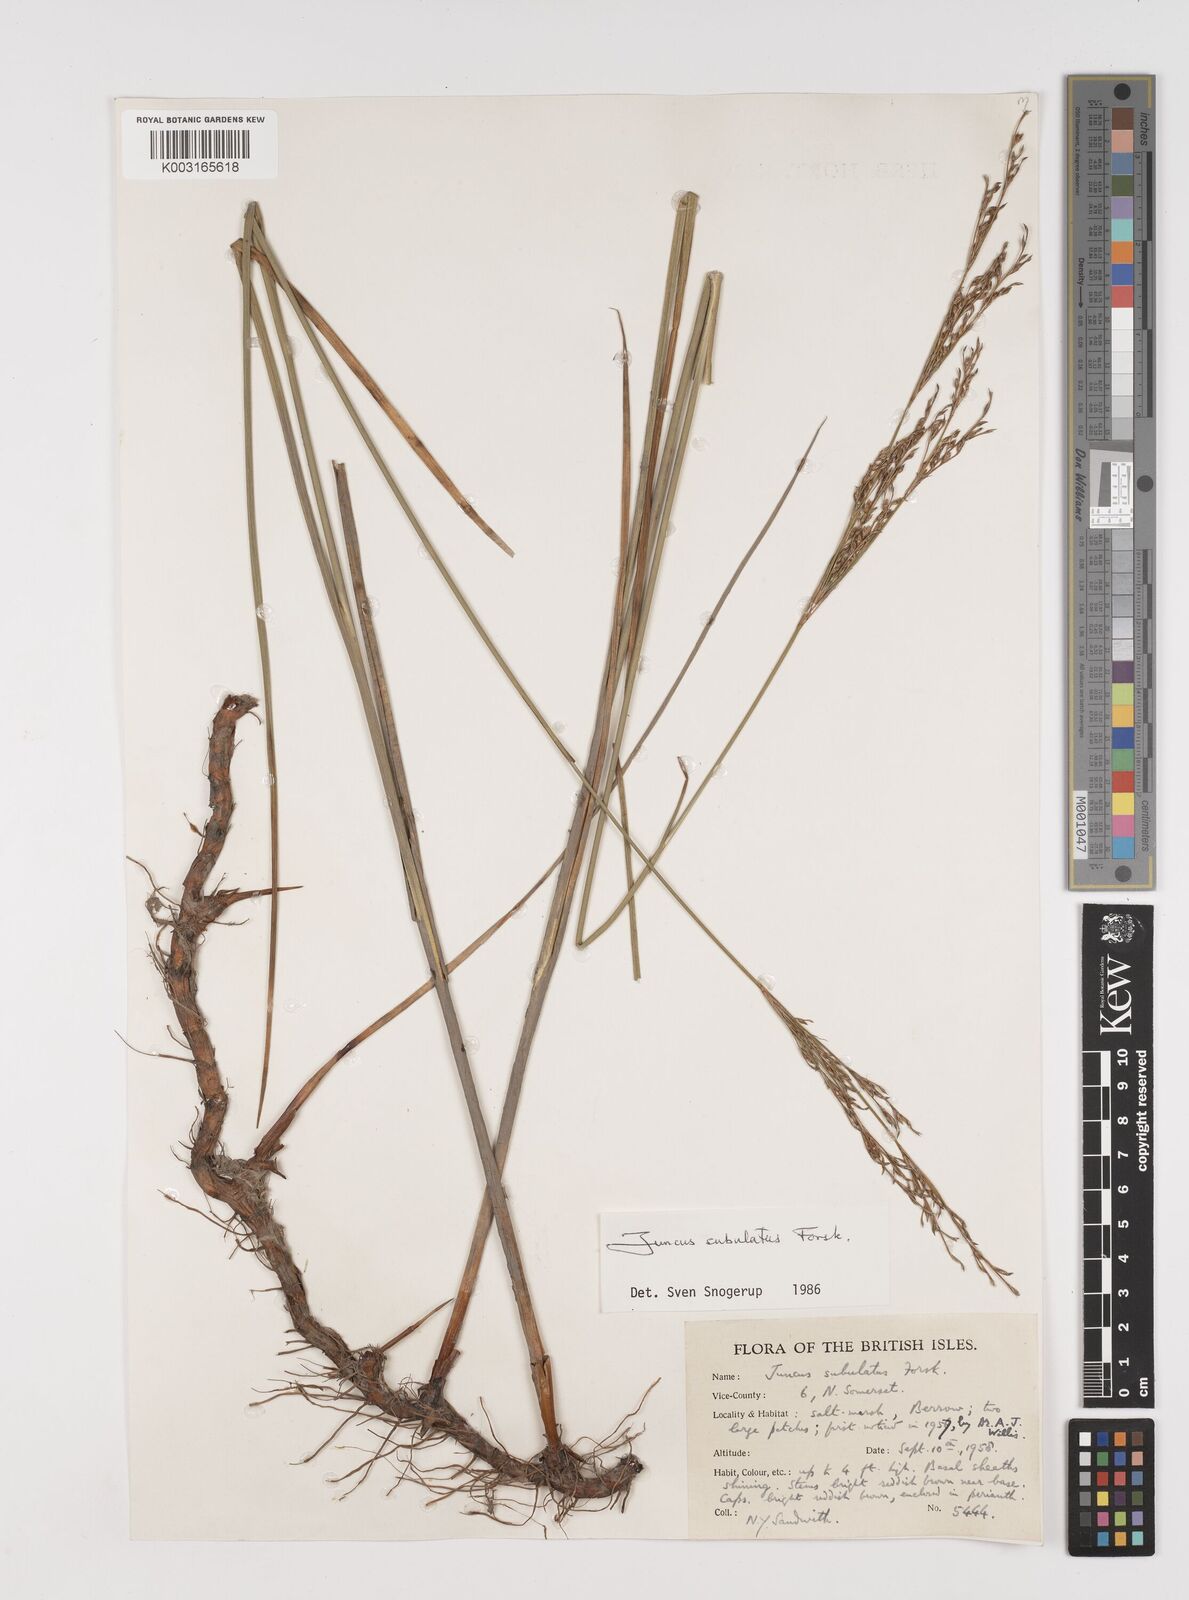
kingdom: Plantae
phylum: Tracheophyta
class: Liliopsida
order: Poales
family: Juncaceae
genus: Juncus
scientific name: Juncus subulatus
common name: Somerset rush
